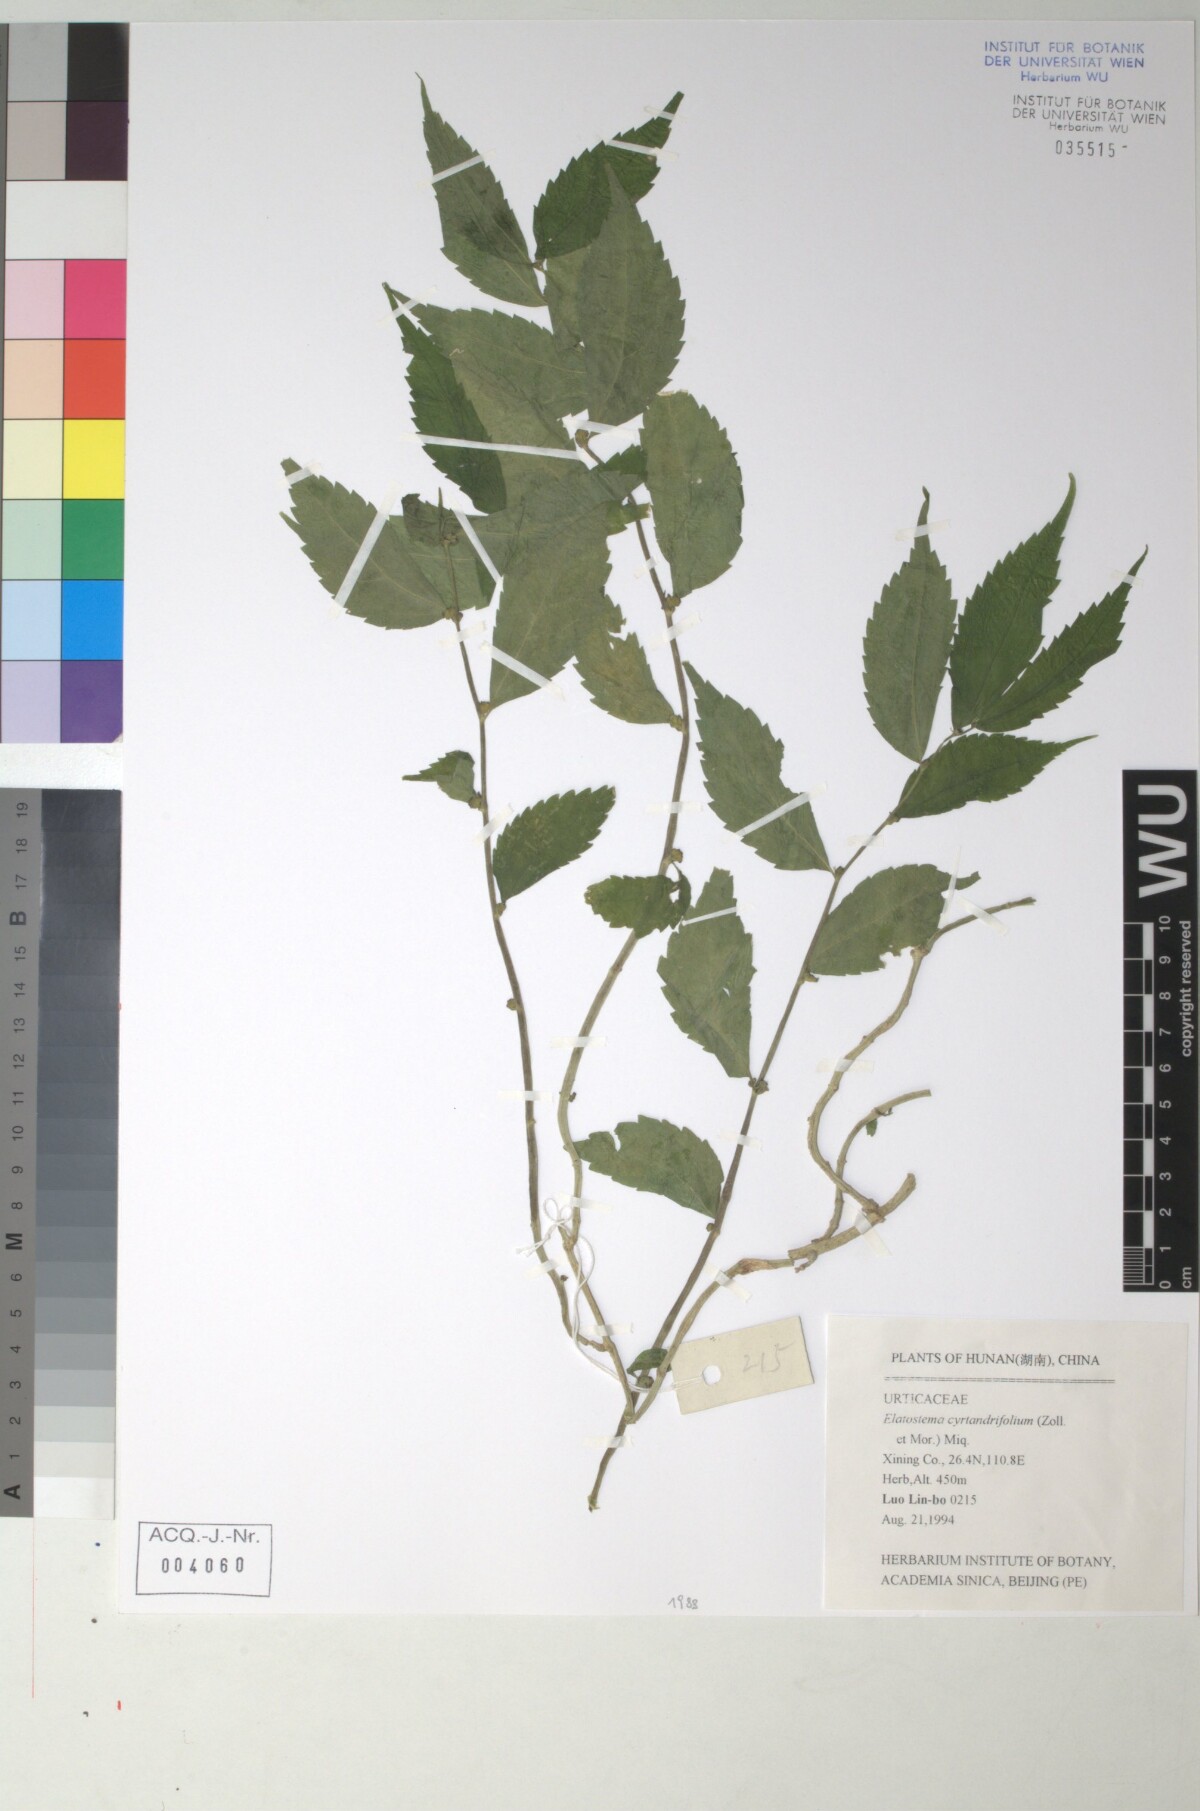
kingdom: Plantae
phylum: Tracheophyta
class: Magnoliopsida
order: Rosales
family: Urticaceae
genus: Elatostema
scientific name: Elatostema cyrtandrifolium
